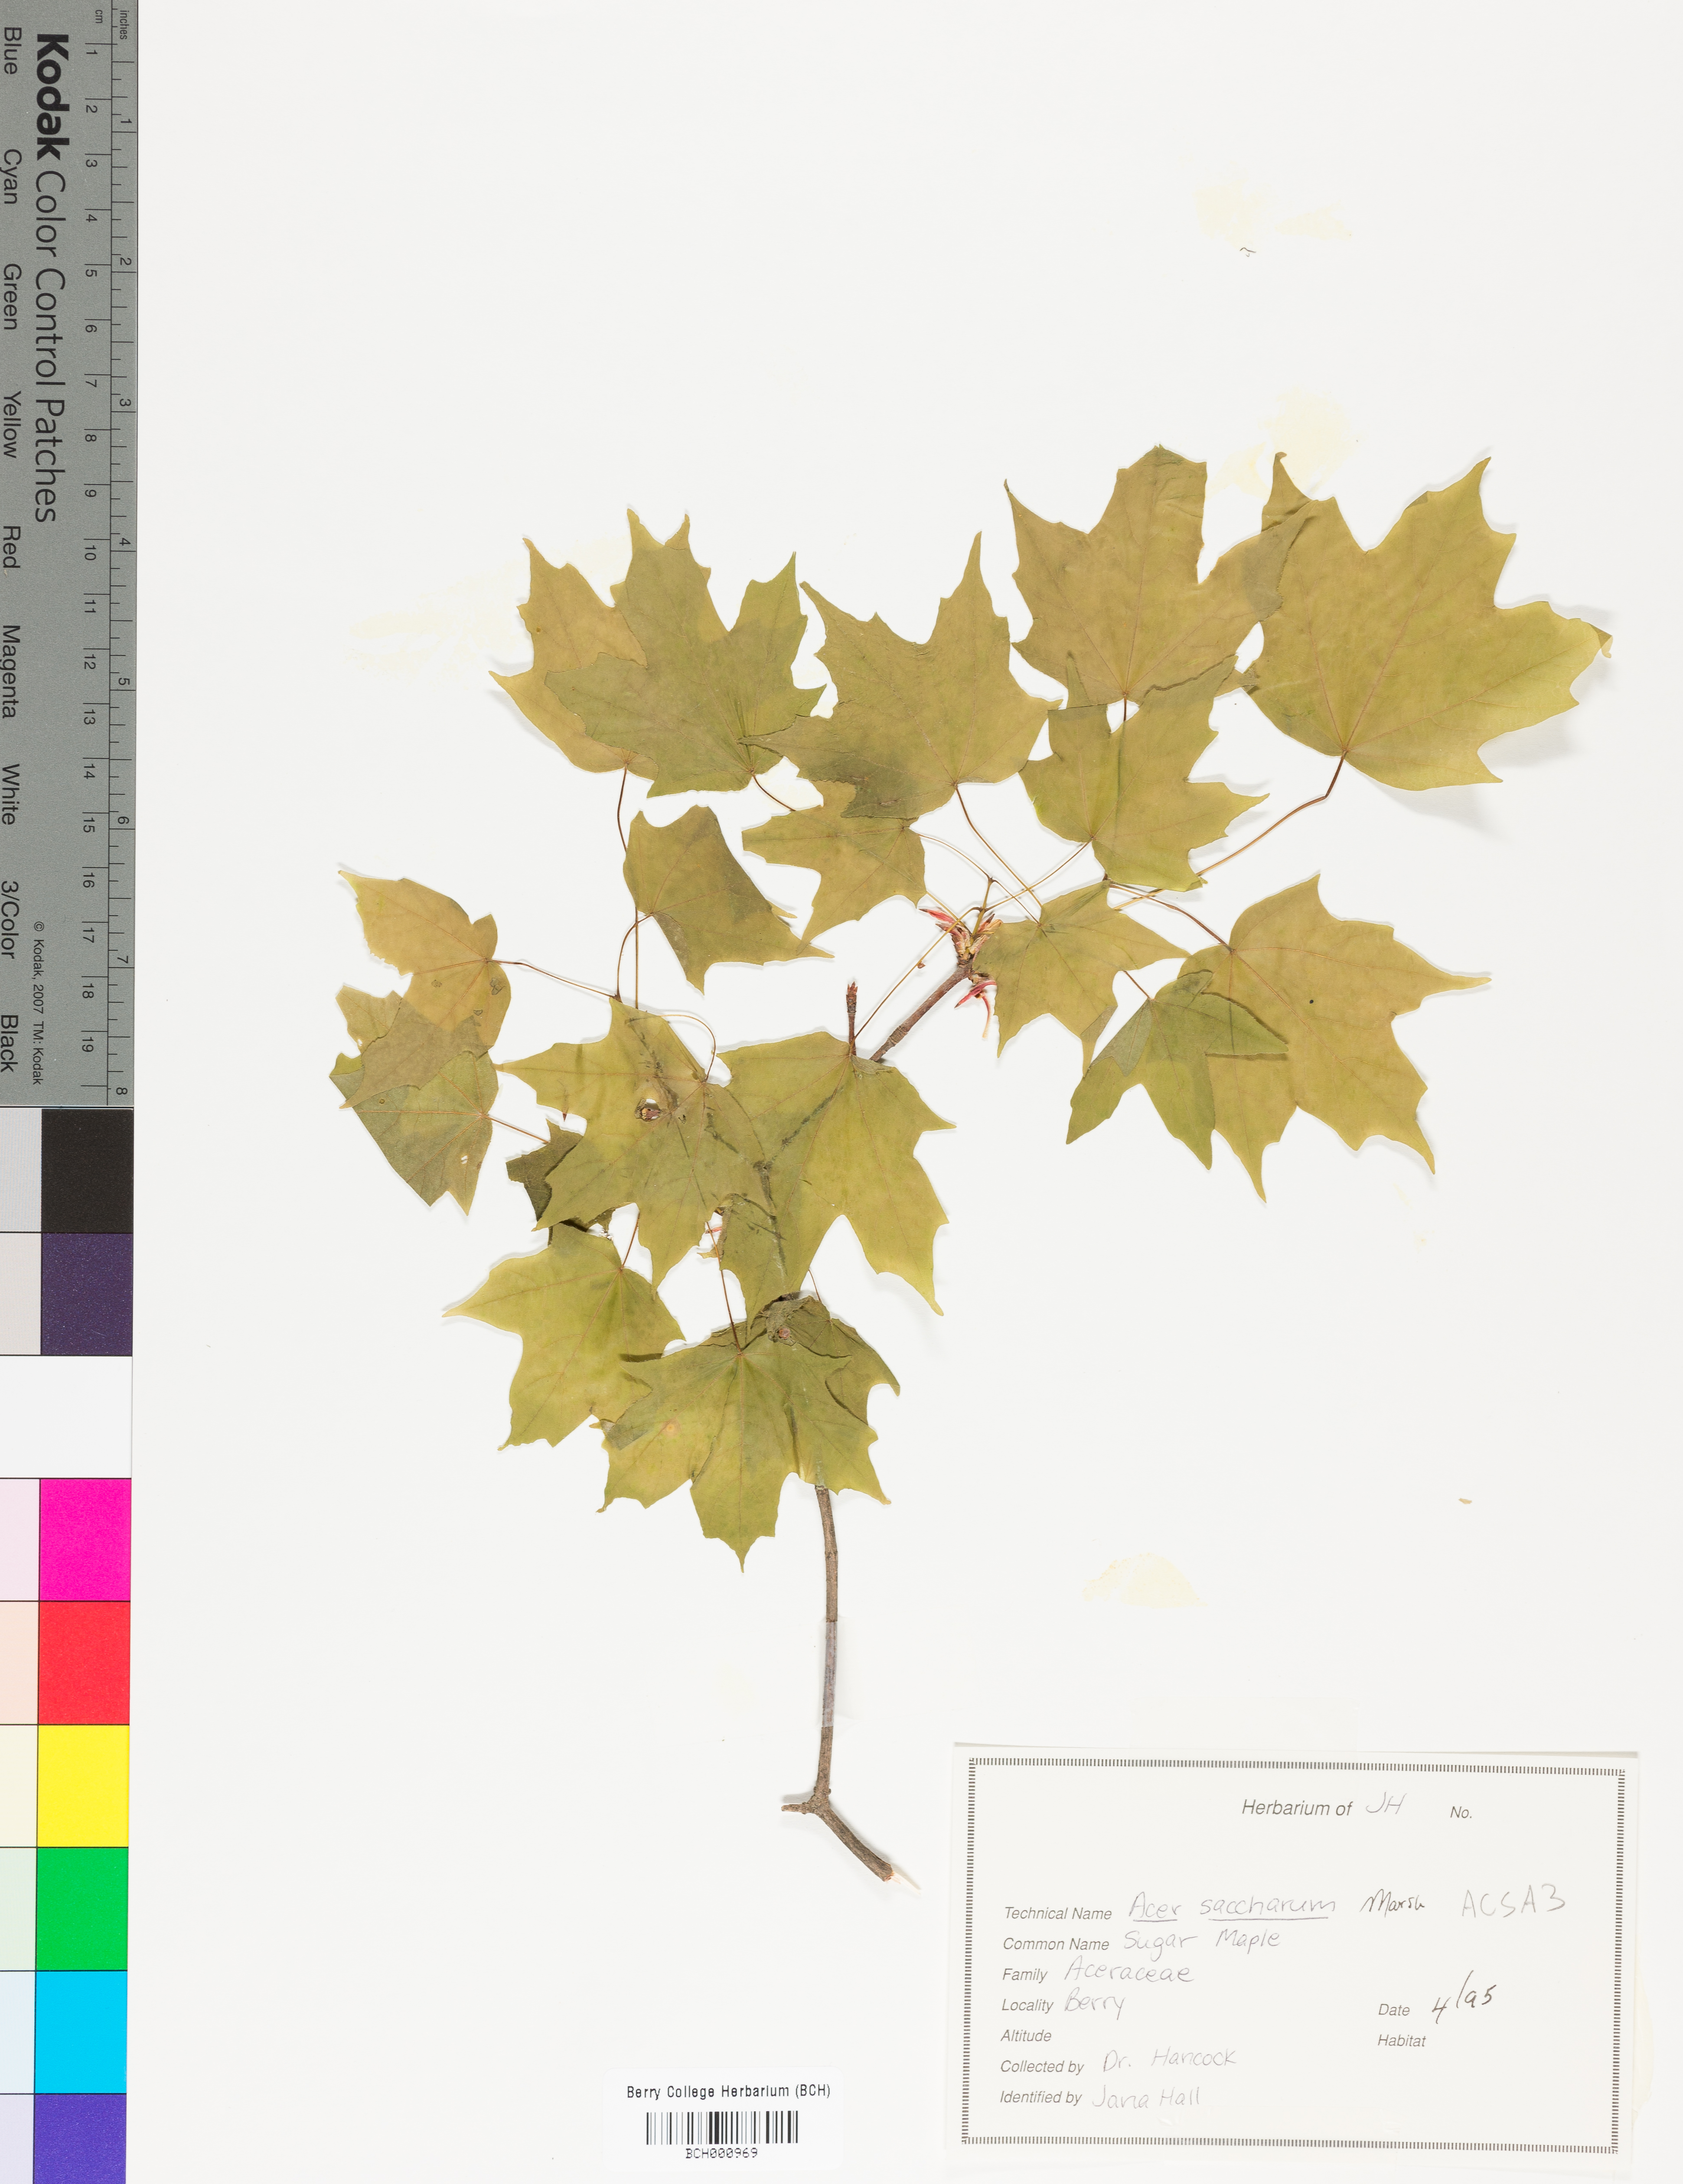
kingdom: Plantae
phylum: Tracheophyta
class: Magnoliopsida
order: Sapindales
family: Sapindaceae
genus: Acer
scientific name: Acer saccharum
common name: Sugar maple
